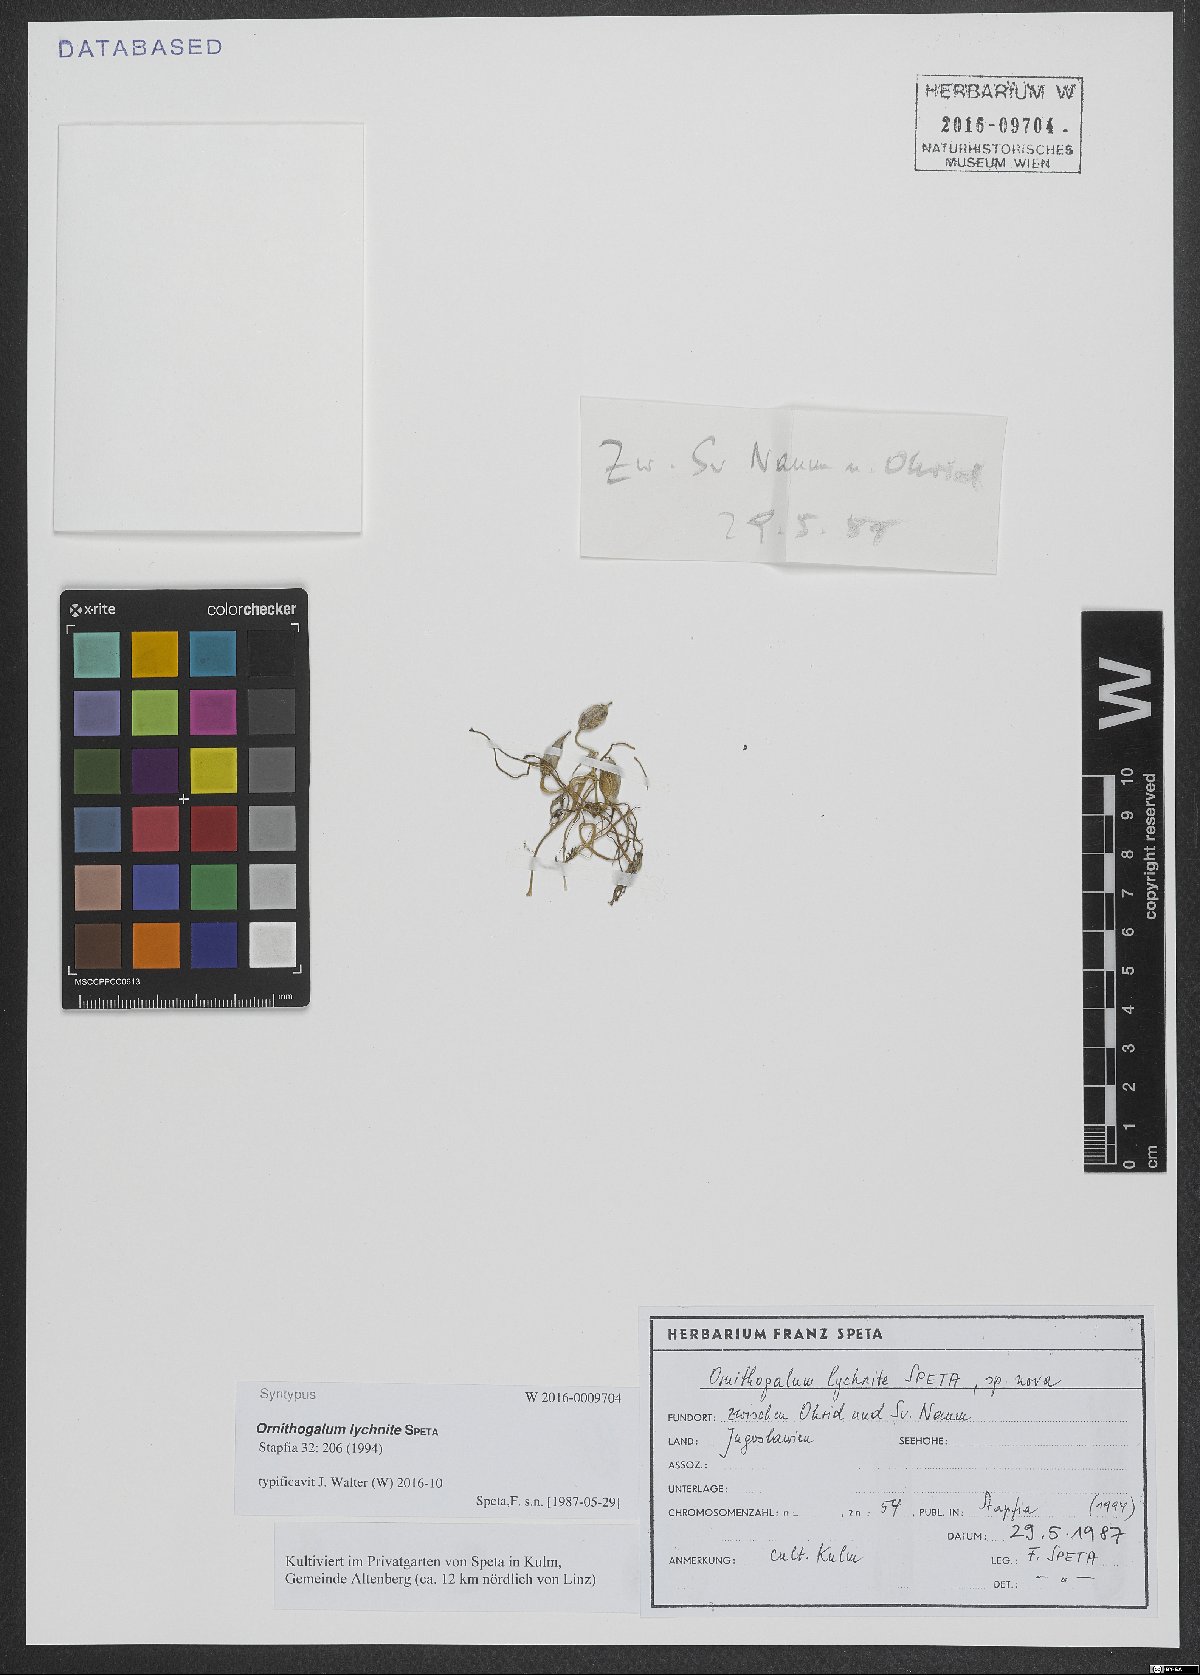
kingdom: Plantae
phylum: Tracheophyta
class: Liliopsida
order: Asparagales
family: Asparagaceae
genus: Ornithogalum
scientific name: Ornithogalum lychnite
